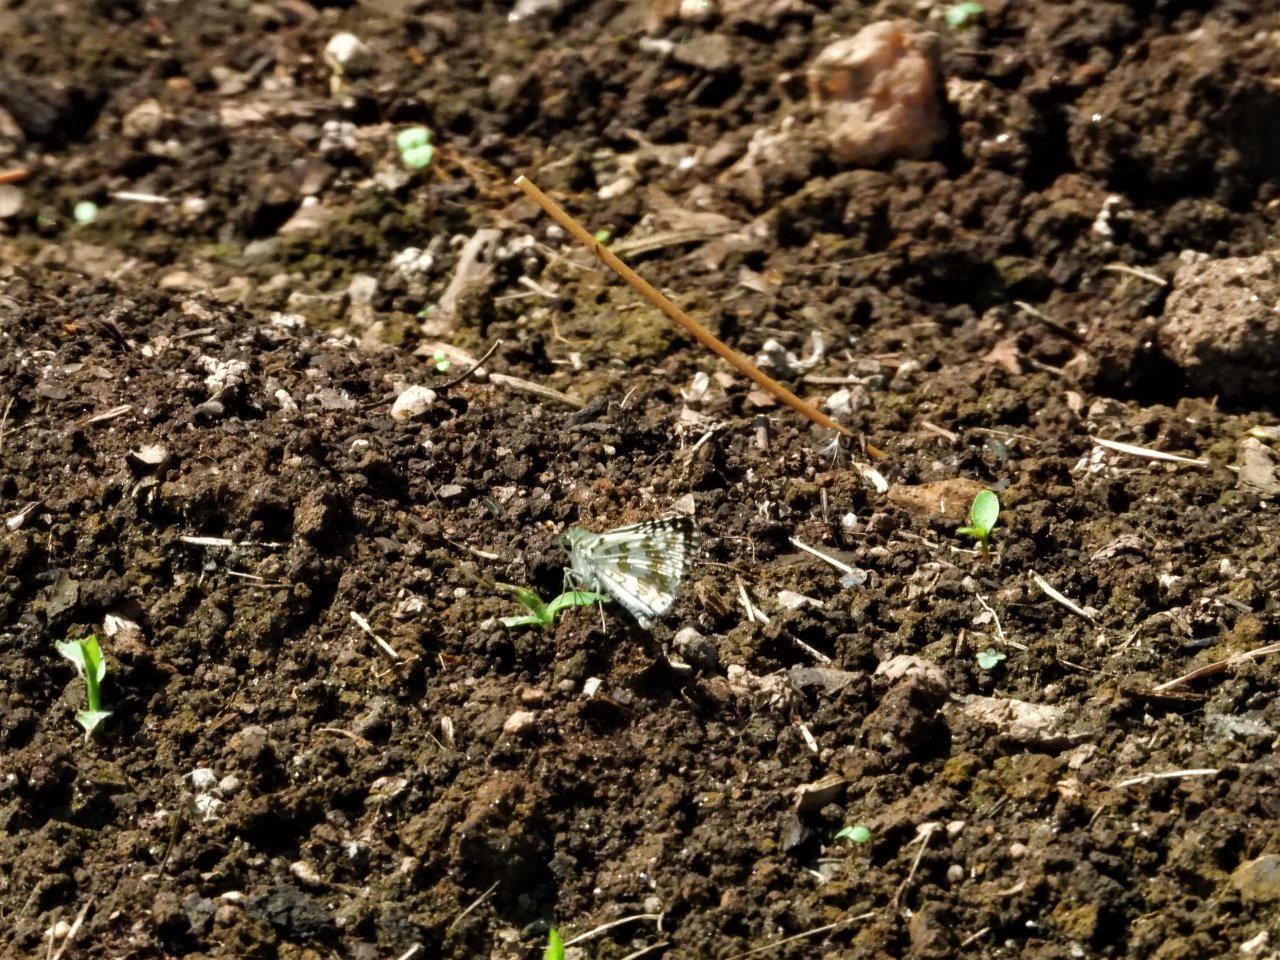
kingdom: Animalia
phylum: Arthropoda
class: Insecta
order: Lepidoptera
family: Hesperiidae
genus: Pyrgus
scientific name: Pyrgus communis
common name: Common Checkered-Skipper
